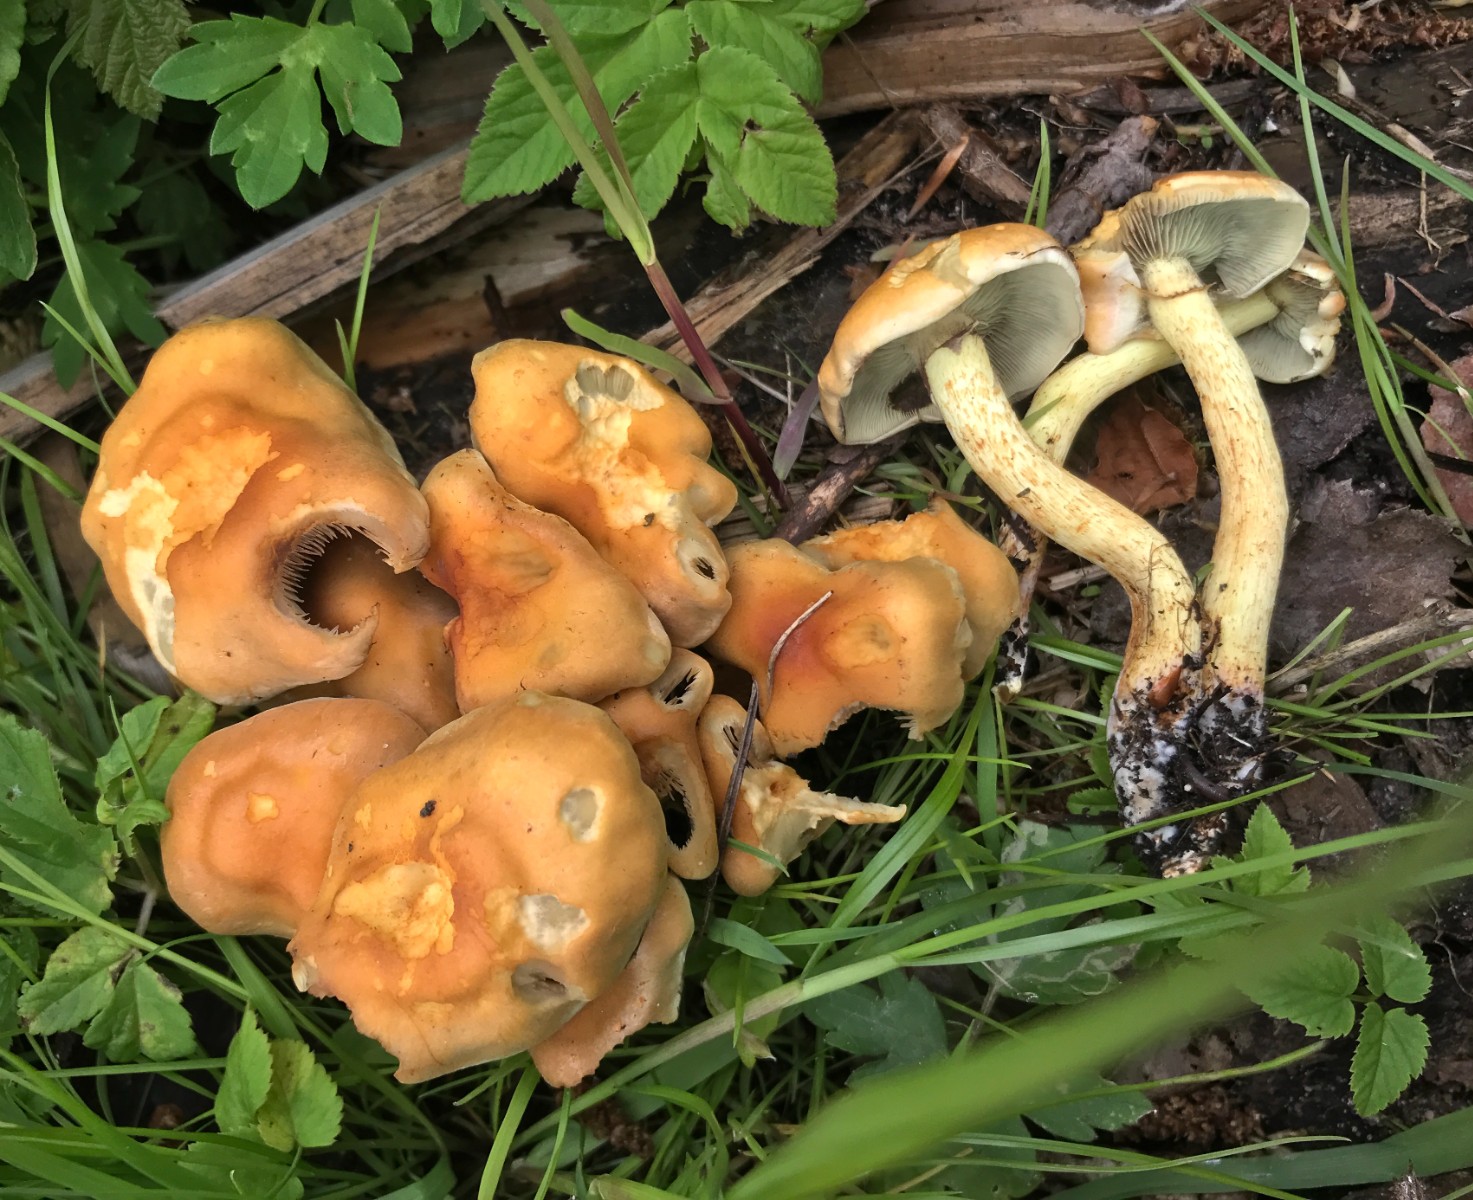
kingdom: Fungi
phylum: Basidiomycota
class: Agaricomycetes
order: Agaricales
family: Strophariaceae
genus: Hypholoma
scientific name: Hypholoma fasciculare
